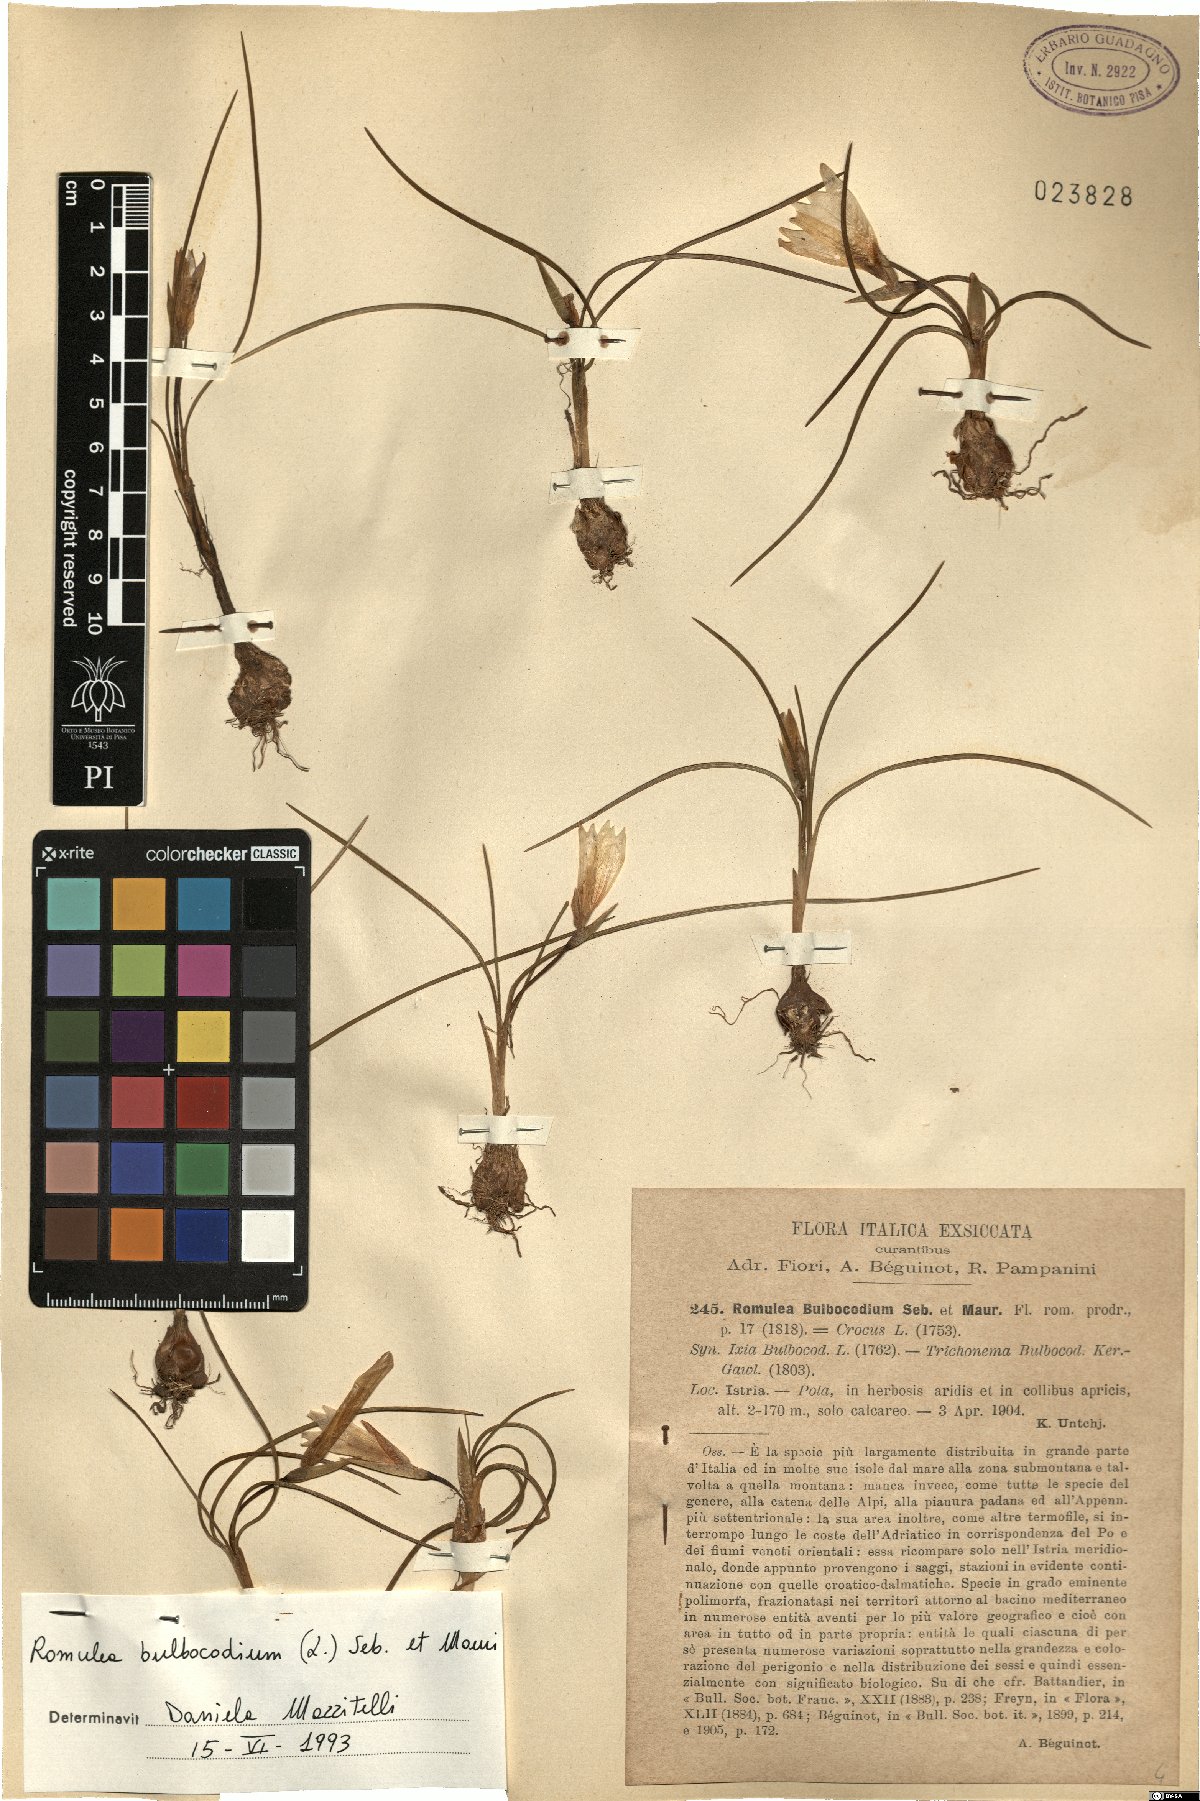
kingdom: Plantae
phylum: Tracheophyta
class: Liliopsida
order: Asparagales
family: Iridaceae
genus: Romulea
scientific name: Romulea bulbocodium
